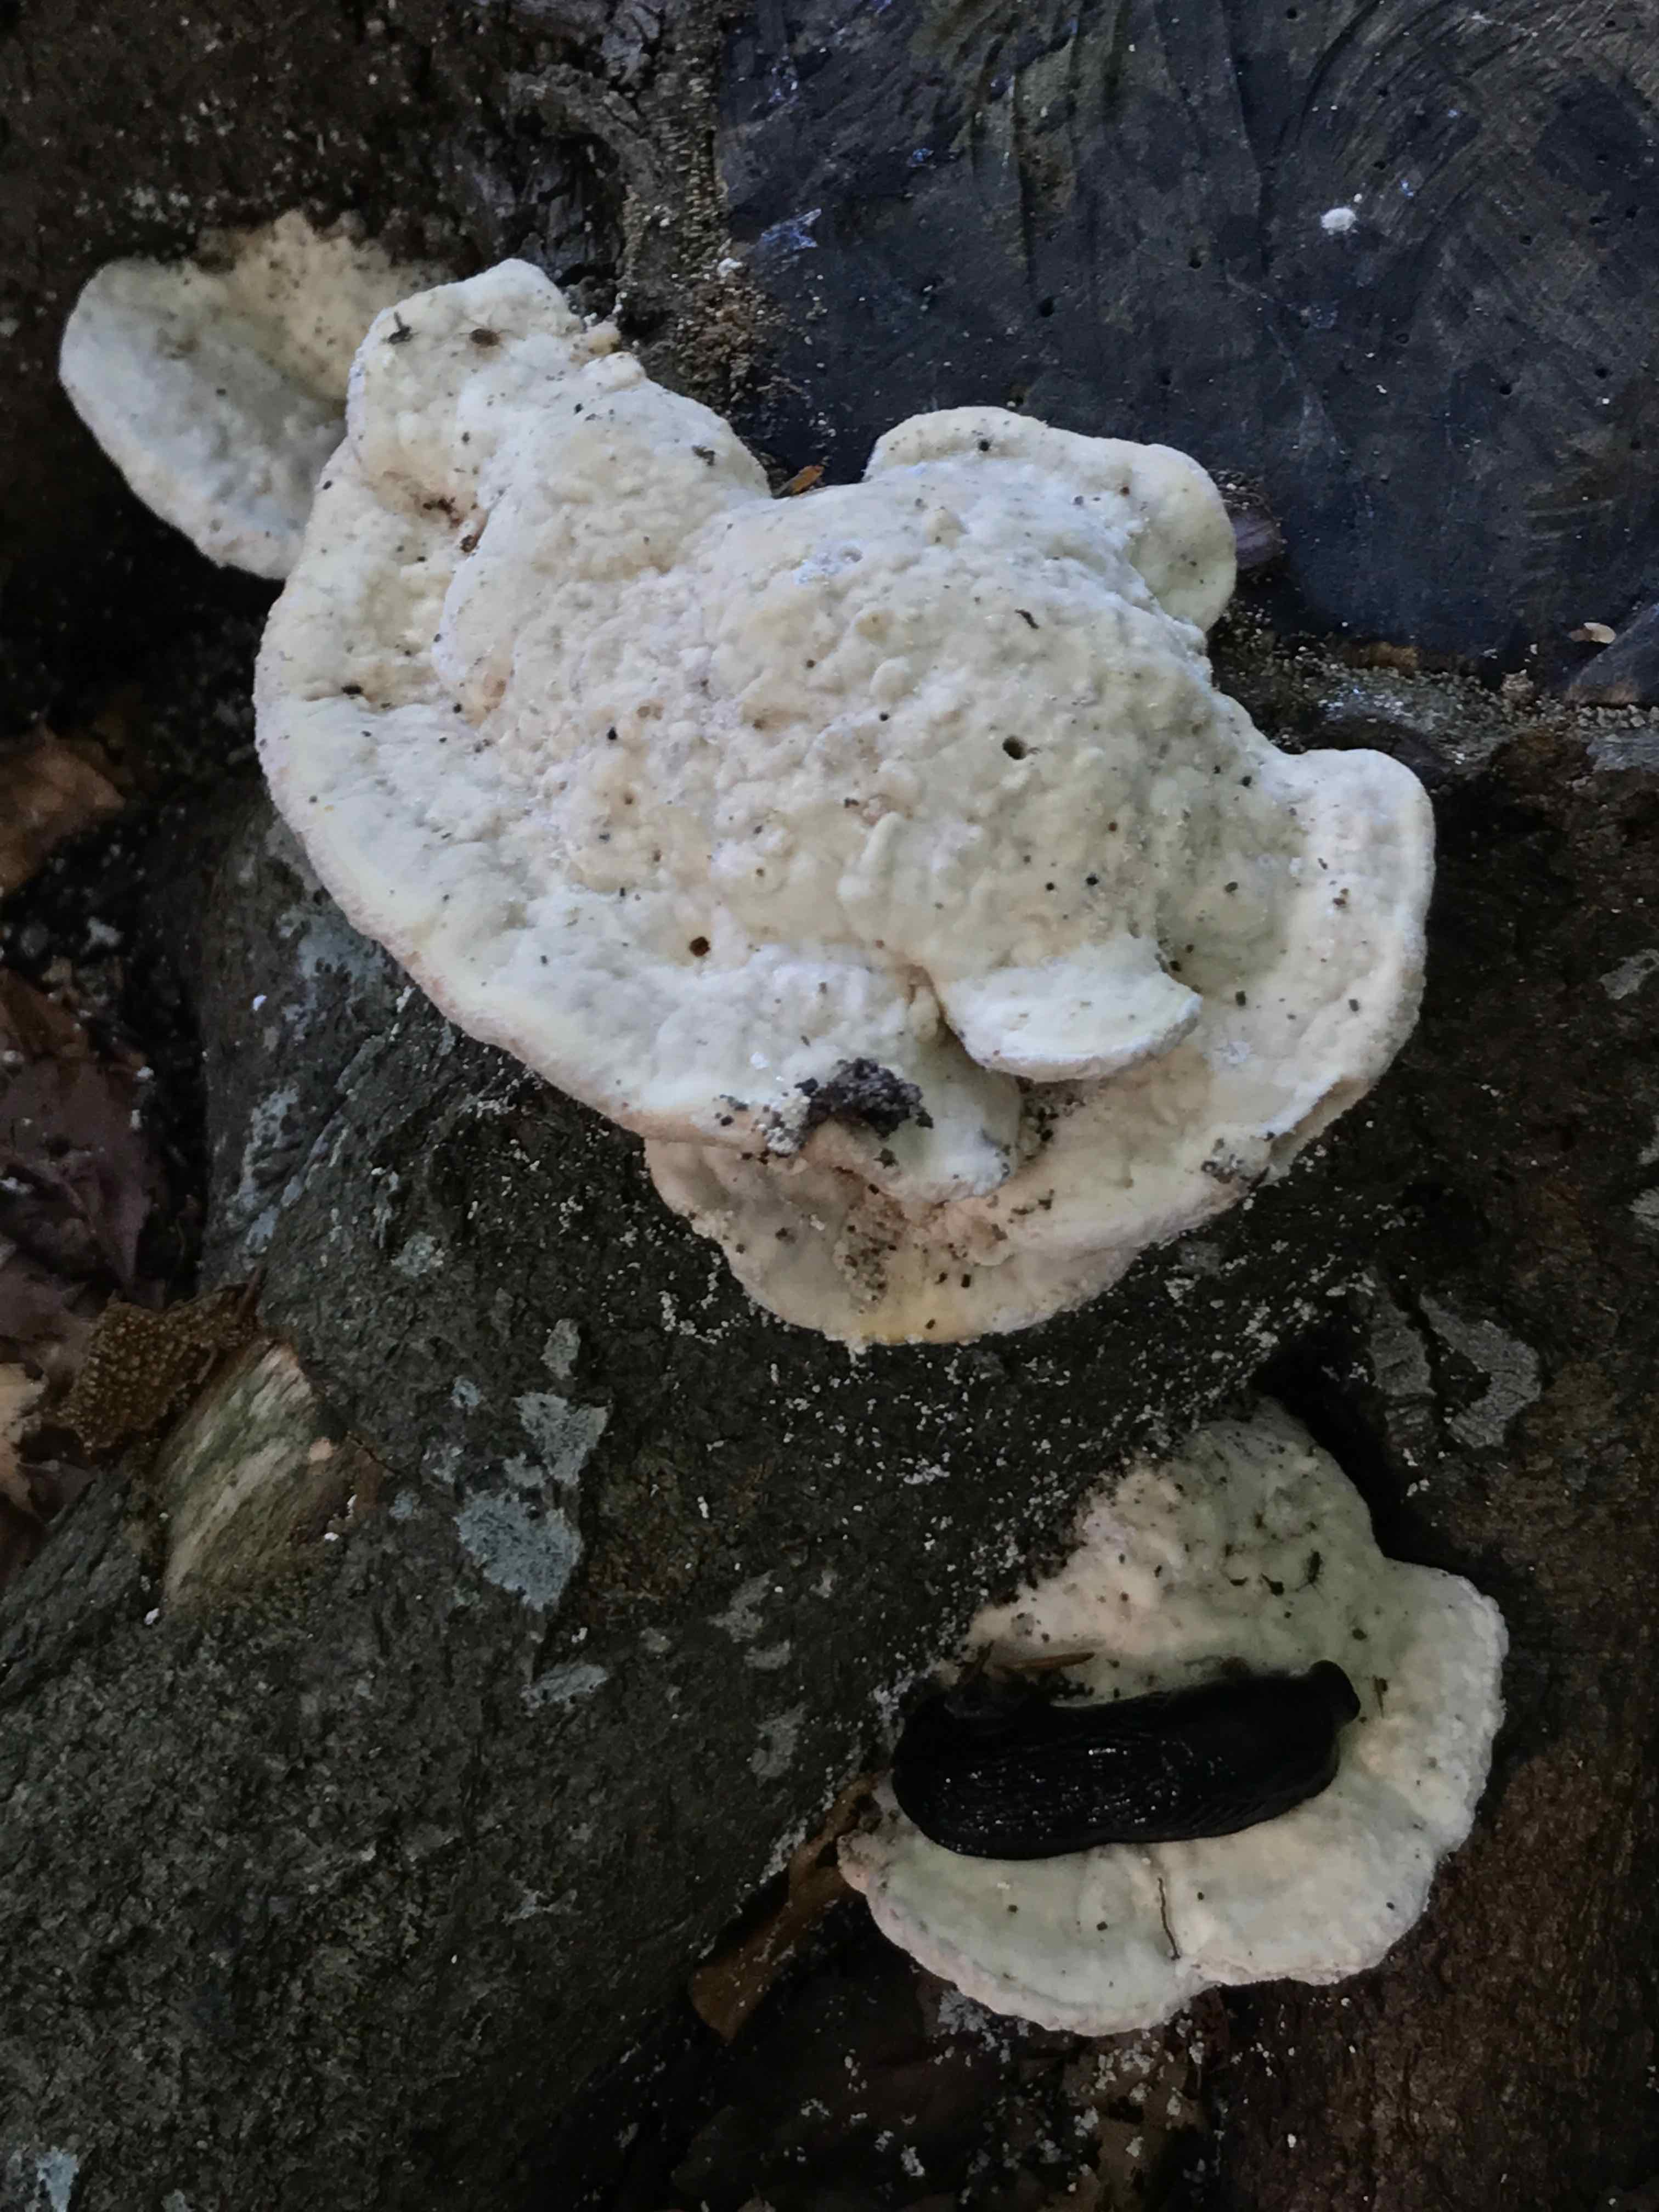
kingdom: Fungi
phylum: Basidiomycota
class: Agaricomycetes
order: Polyporales
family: Polyporaceae
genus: Trametes
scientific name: Trametes gibbosa
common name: puklet læderporesvamp
